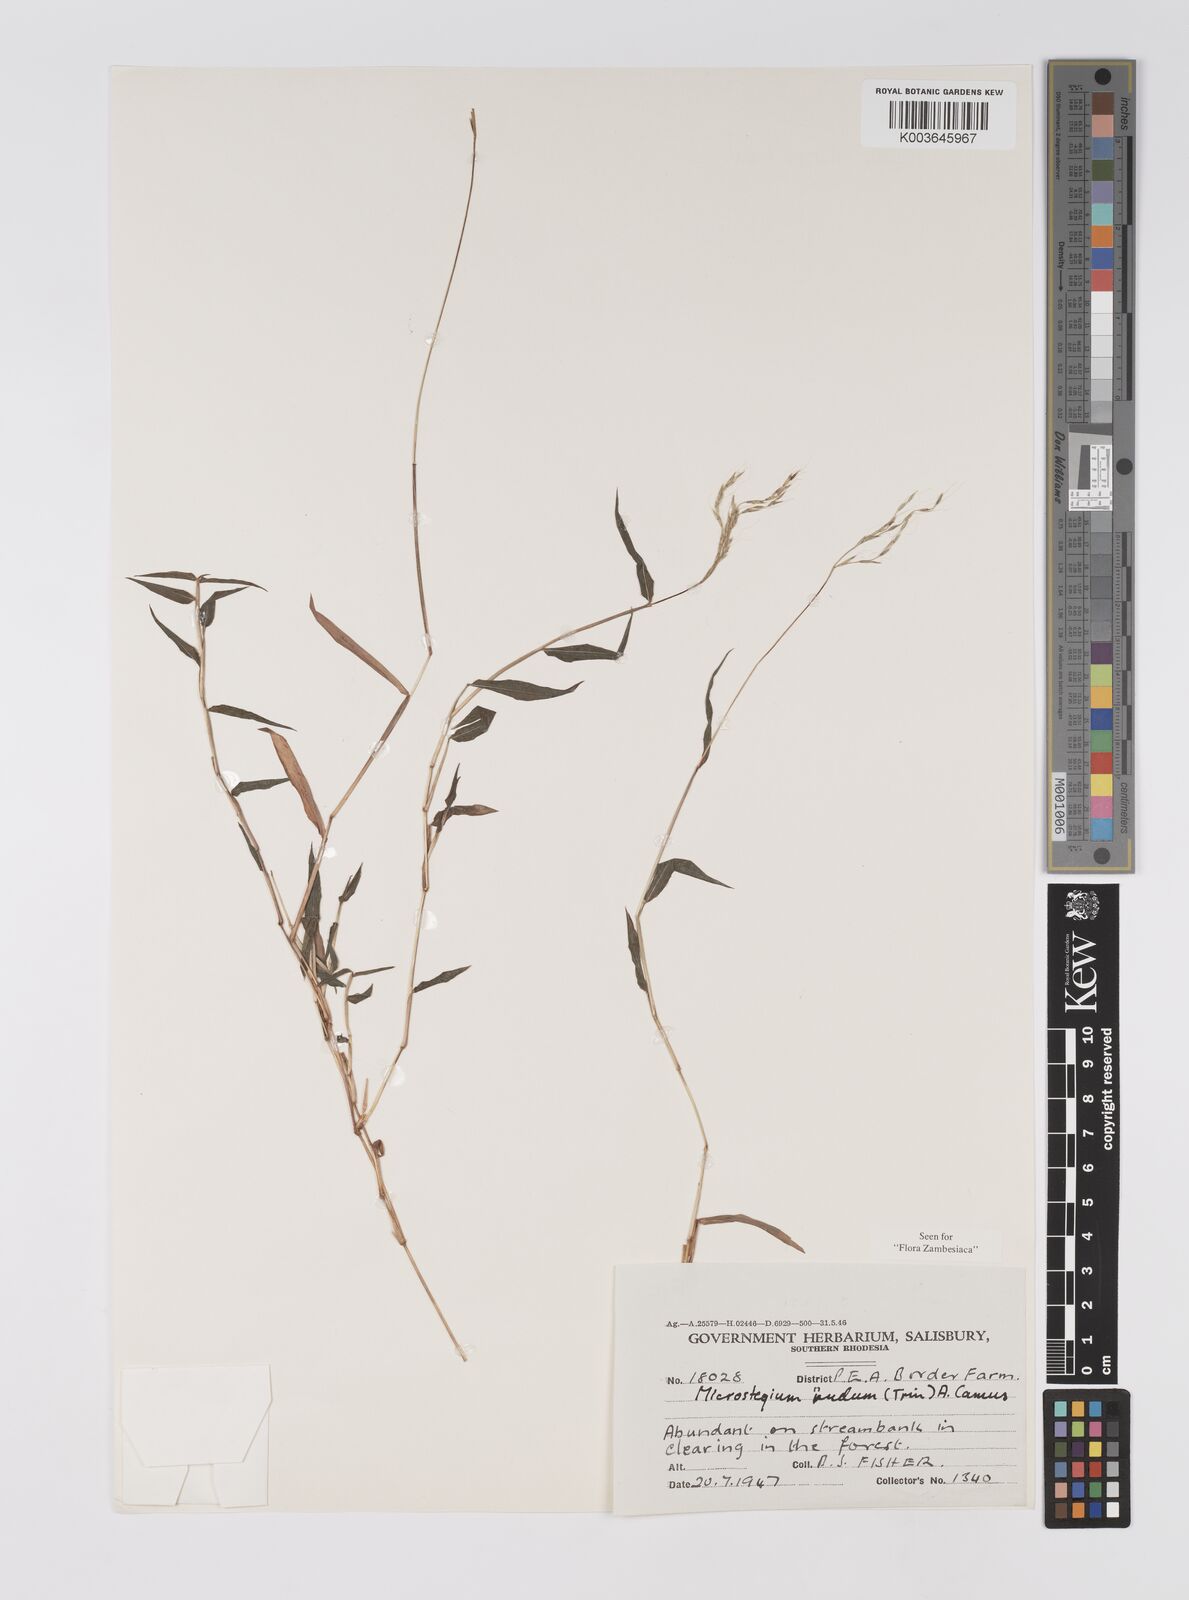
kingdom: Plantae
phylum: Tracheophyta
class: Liliopsida
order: Poales
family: Poaceae
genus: Microstegium
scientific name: Microstegium nudum
